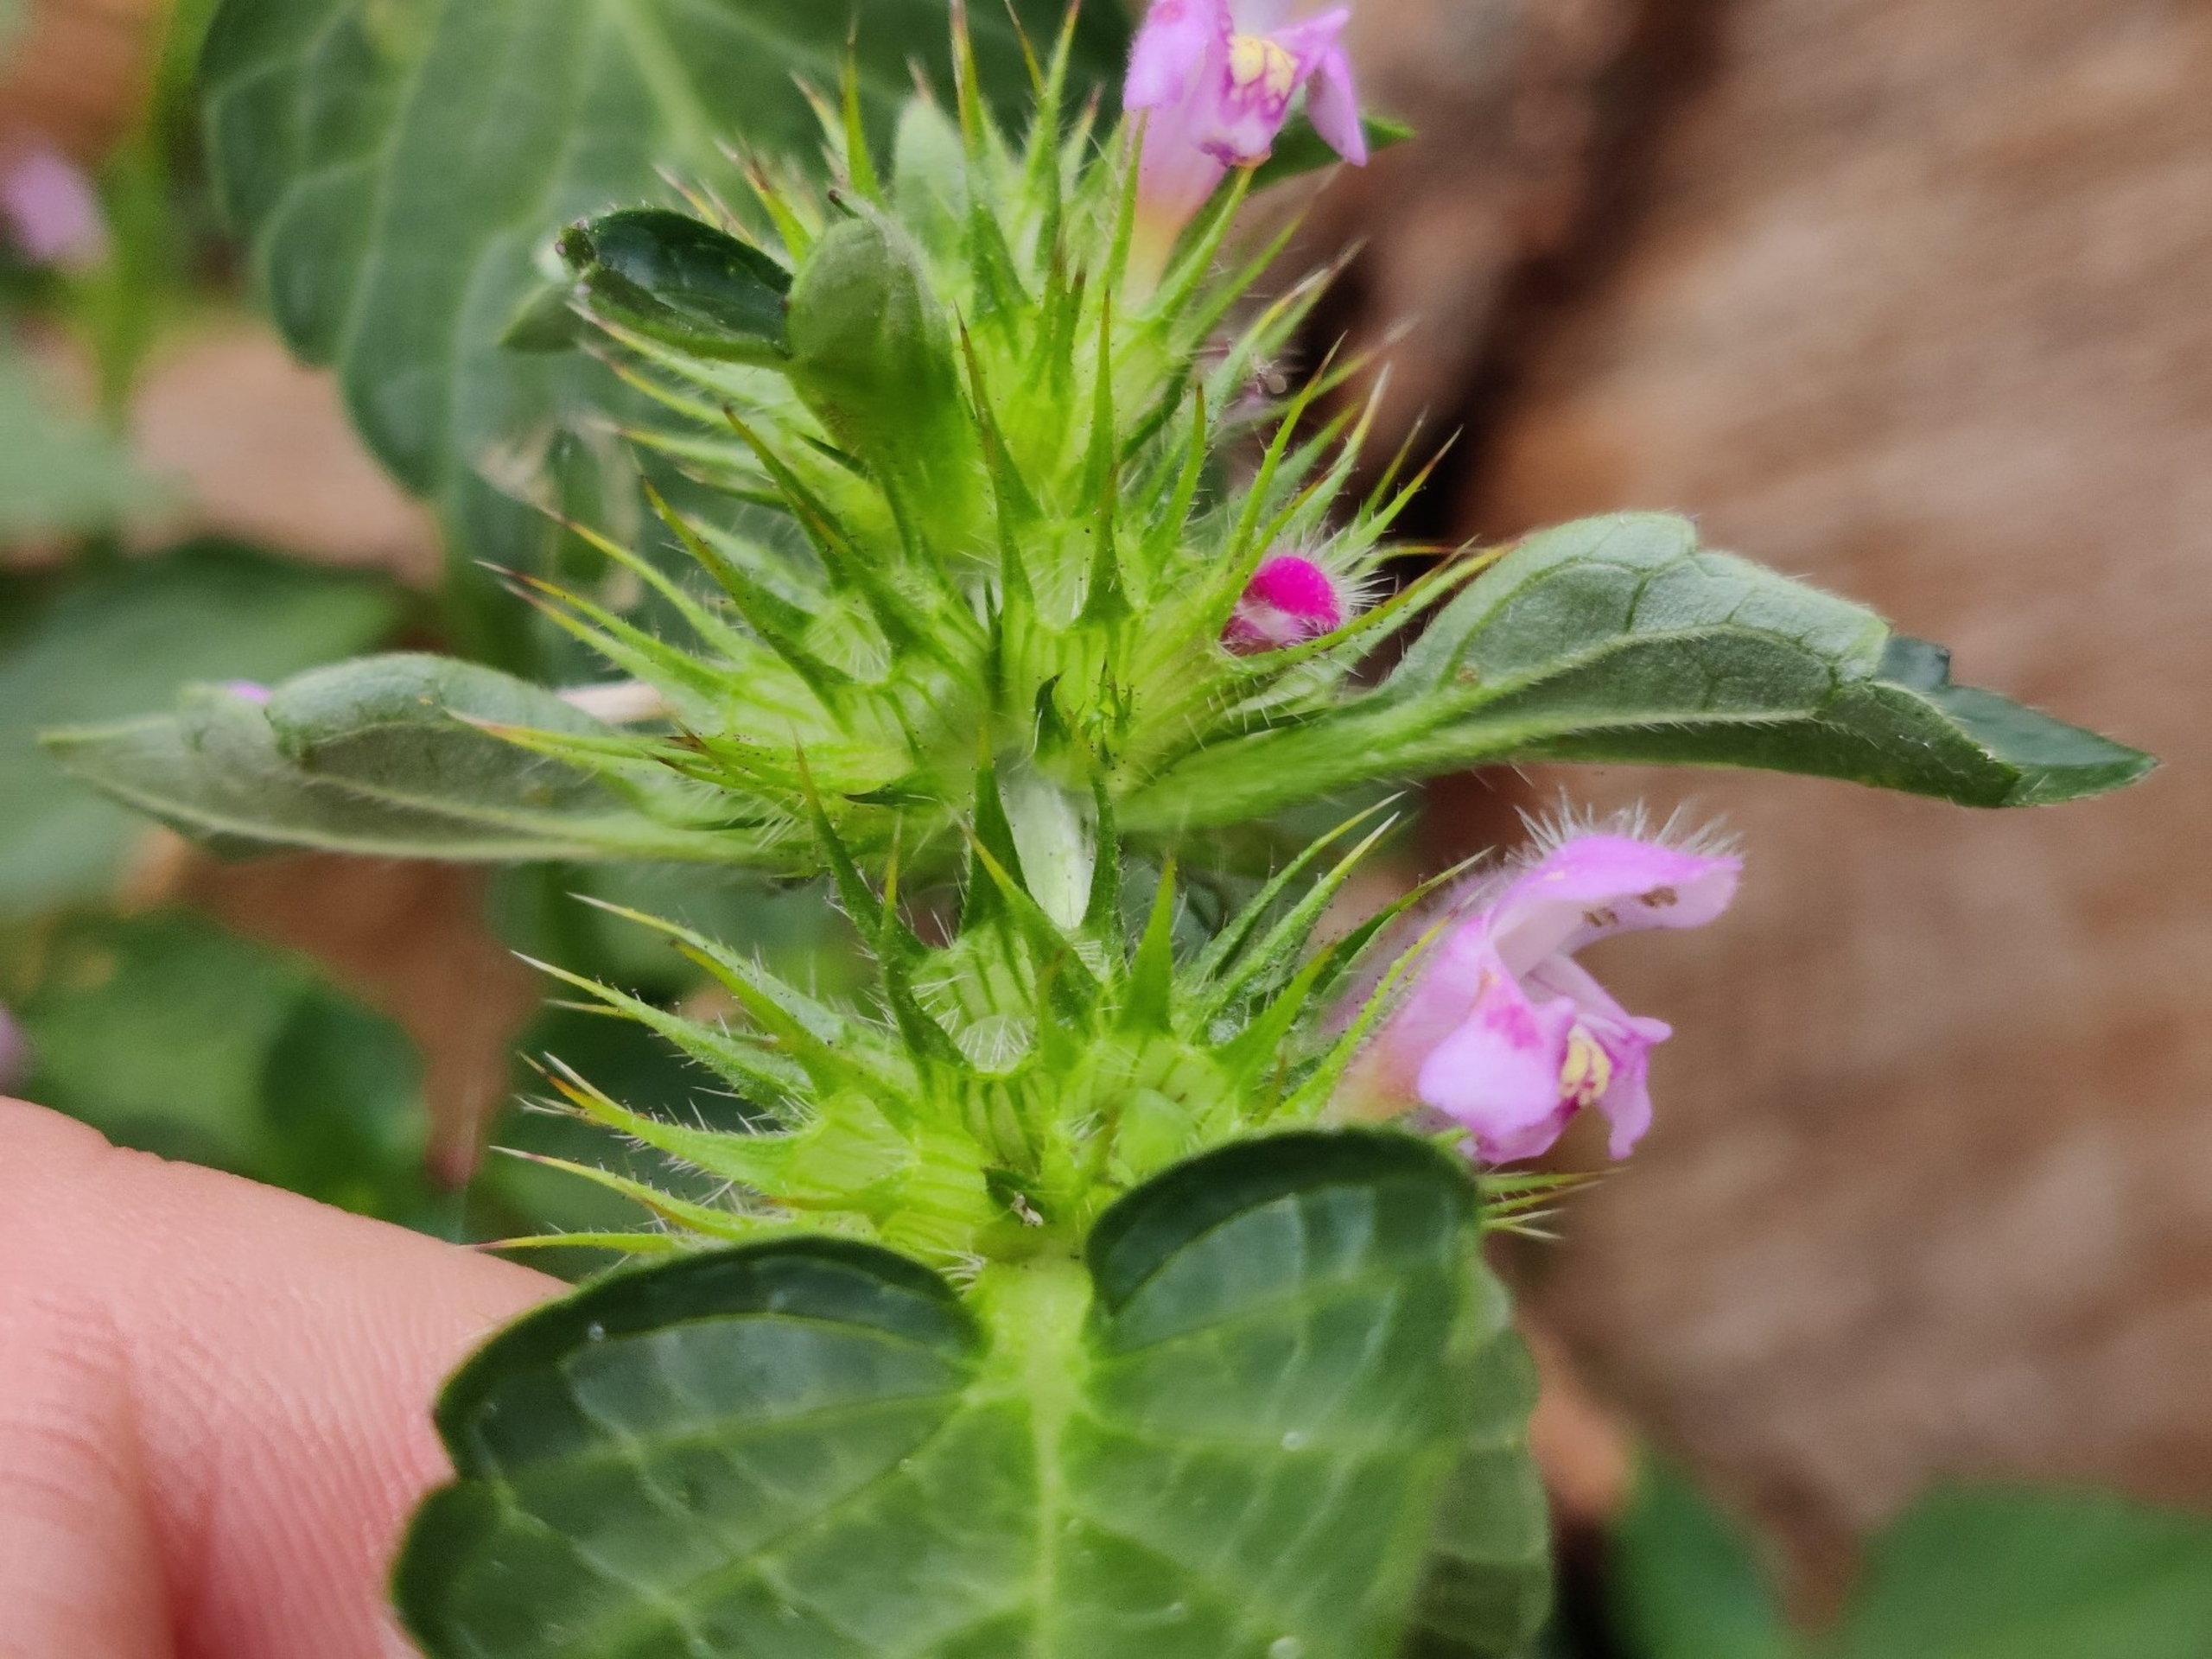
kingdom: Plantae
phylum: Tracheophyta
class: Magnoliopsida
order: Lamiales
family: Lamiaceae
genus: Galeopsis
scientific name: Galeopsis tetrahit
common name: Almindelig hanekro
